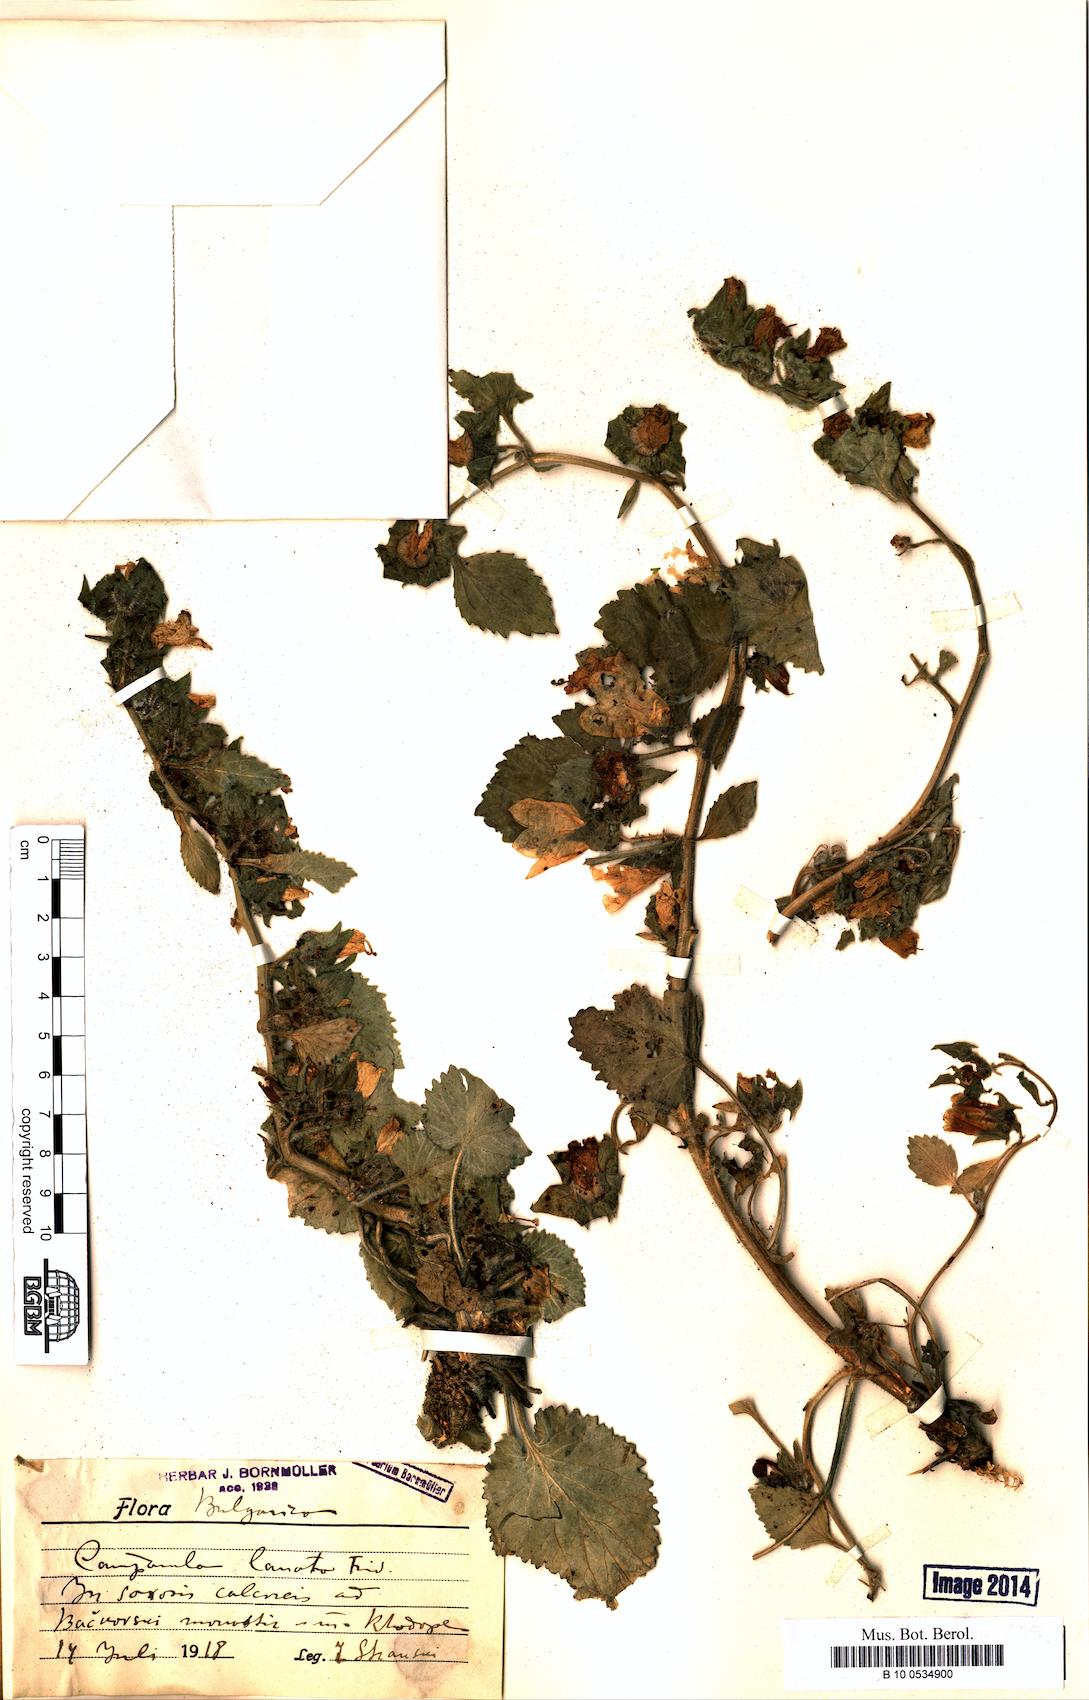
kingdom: Plantae
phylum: Tracheophyta
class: Magnoliopsida
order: Asterales
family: Campanulaceae
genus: Campanula
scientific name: Campanula lanata
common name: Woolly bellflower
